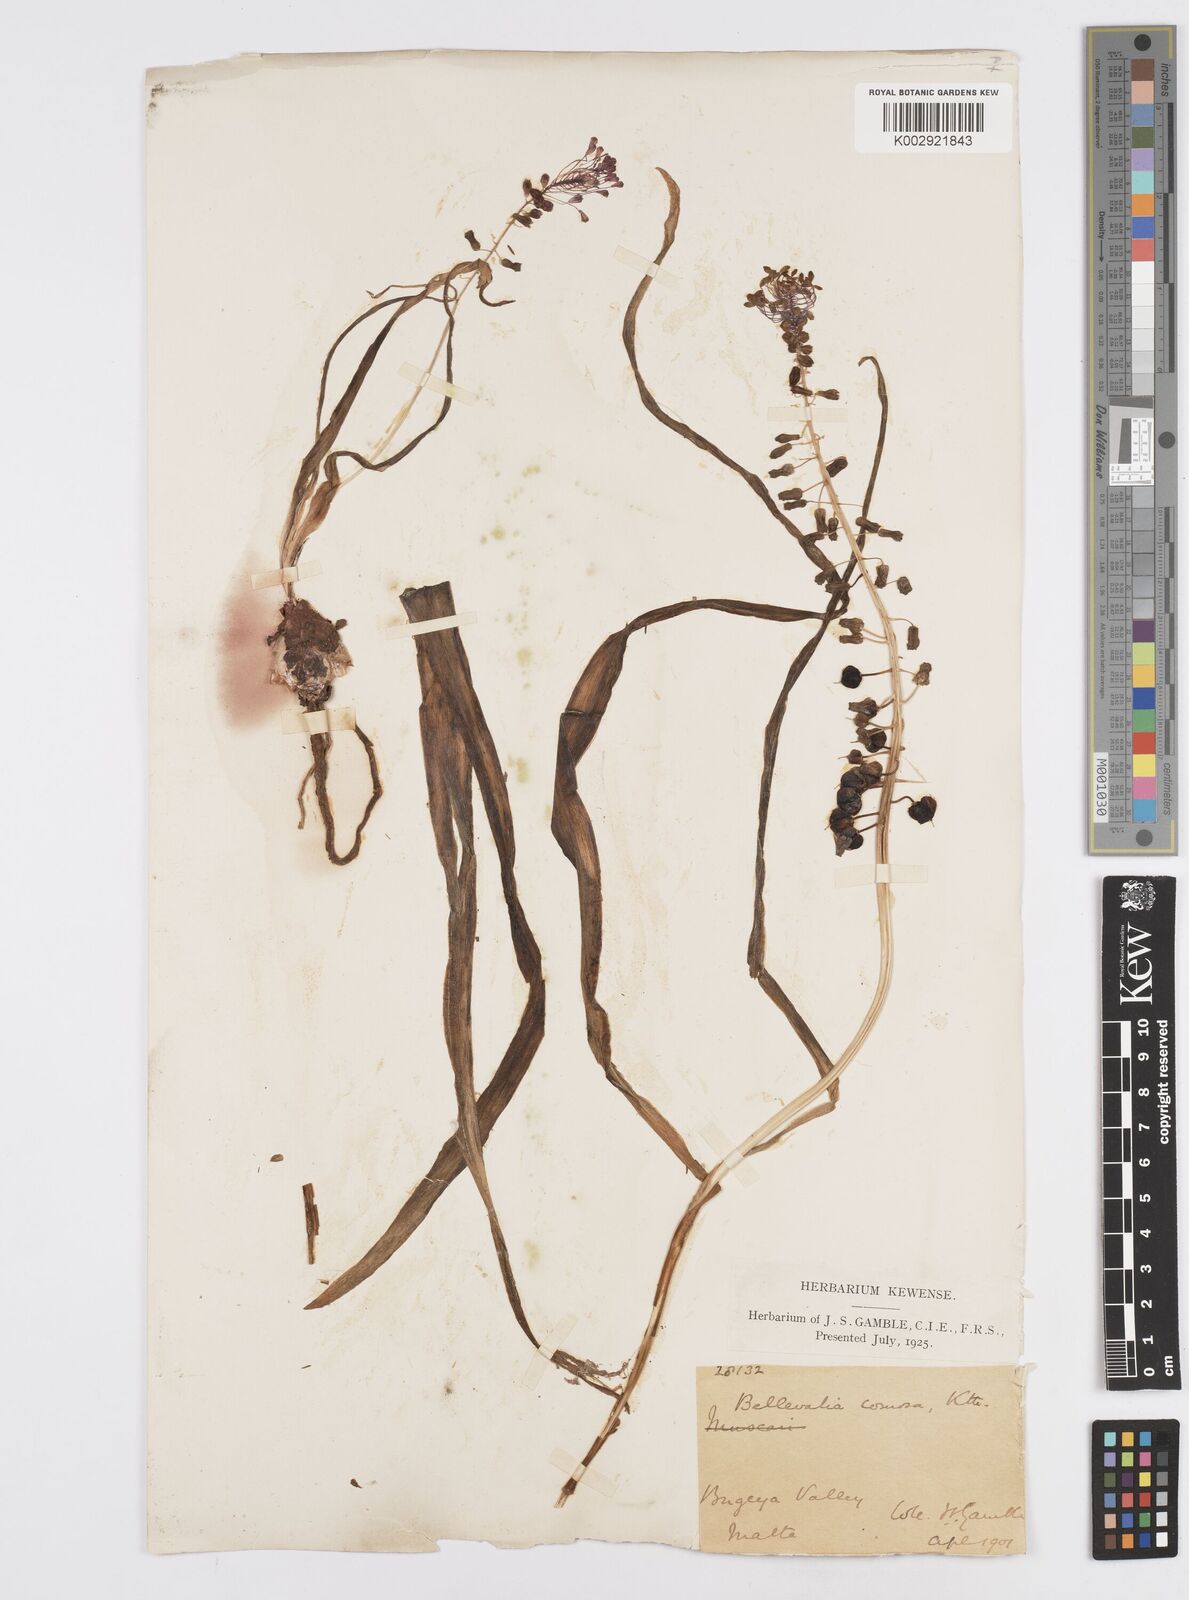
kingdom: Plantae
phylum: Tracheophyta
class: Liliopsida
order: Asparagales
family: Asparagaceae
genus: Muscari
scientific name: Muscari comosum
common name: Tassel hyacinth
